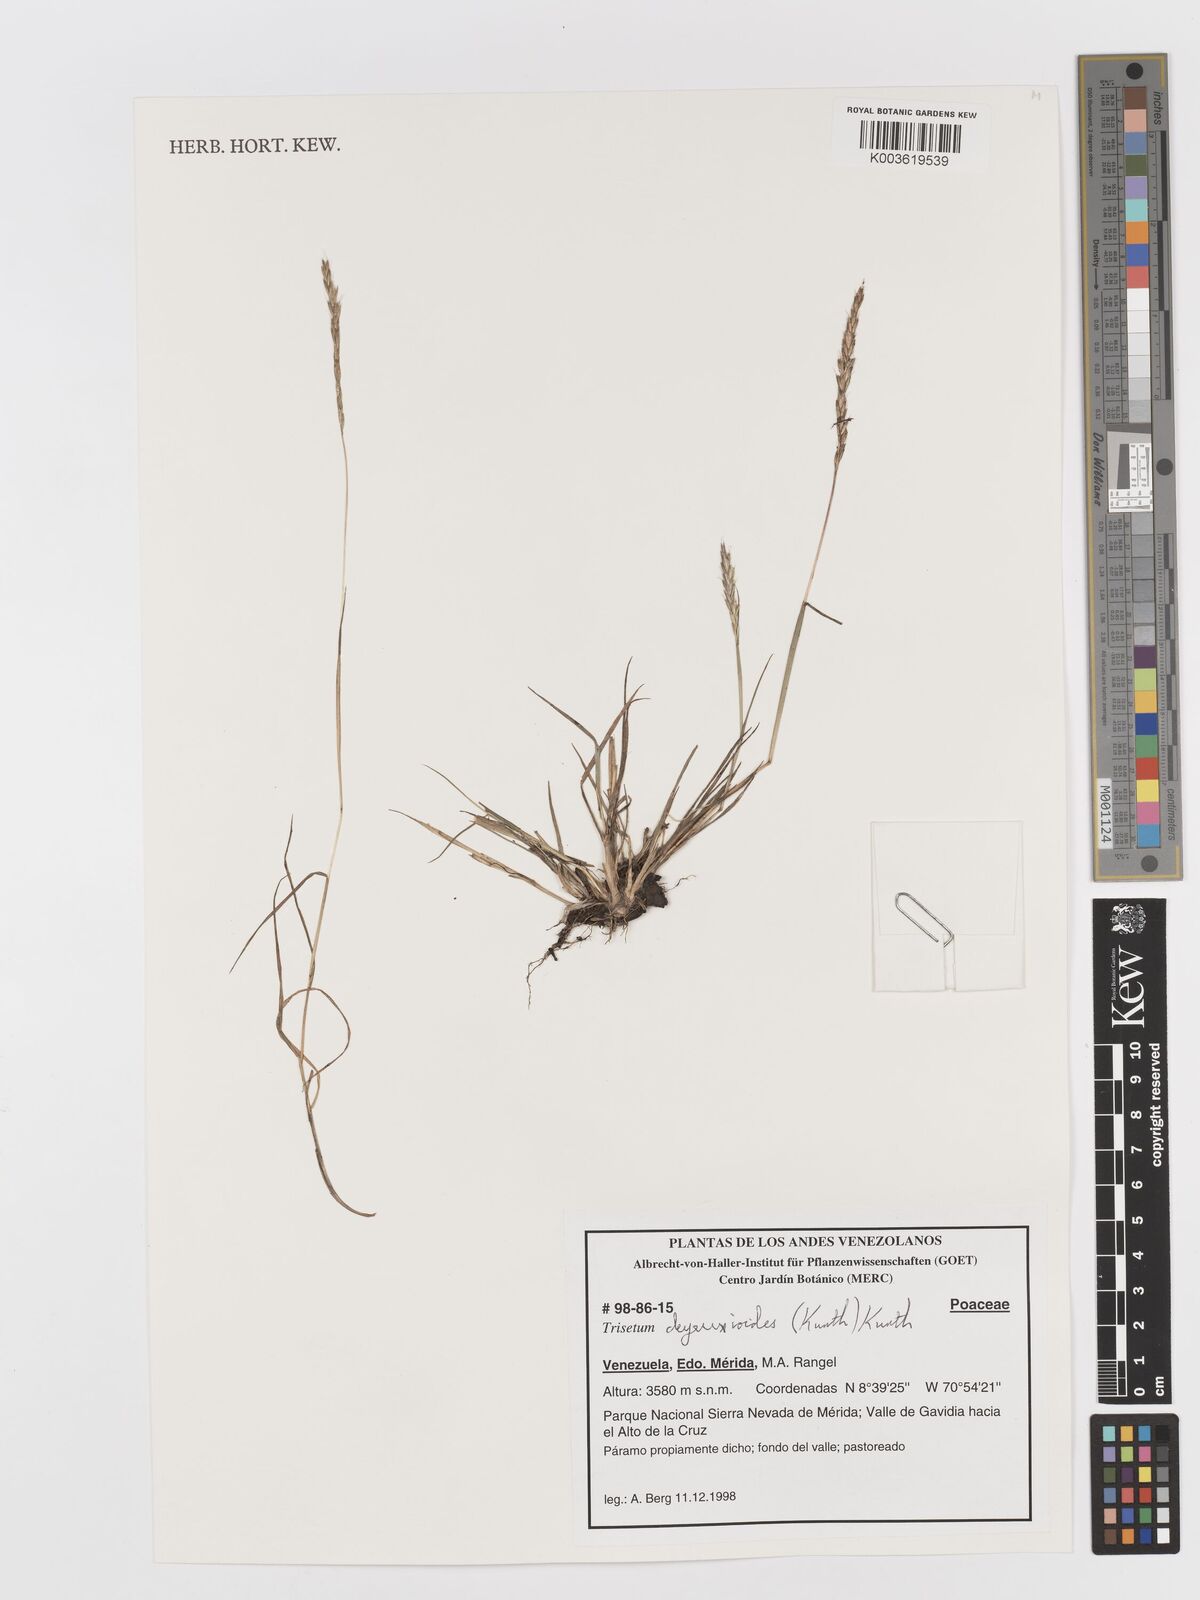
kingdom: Plantae
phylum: Tracheophyta
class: Liliopsida
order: Poales
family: Poaceae
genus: Peyritschia
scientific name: Peyritschia deyeuxioides
